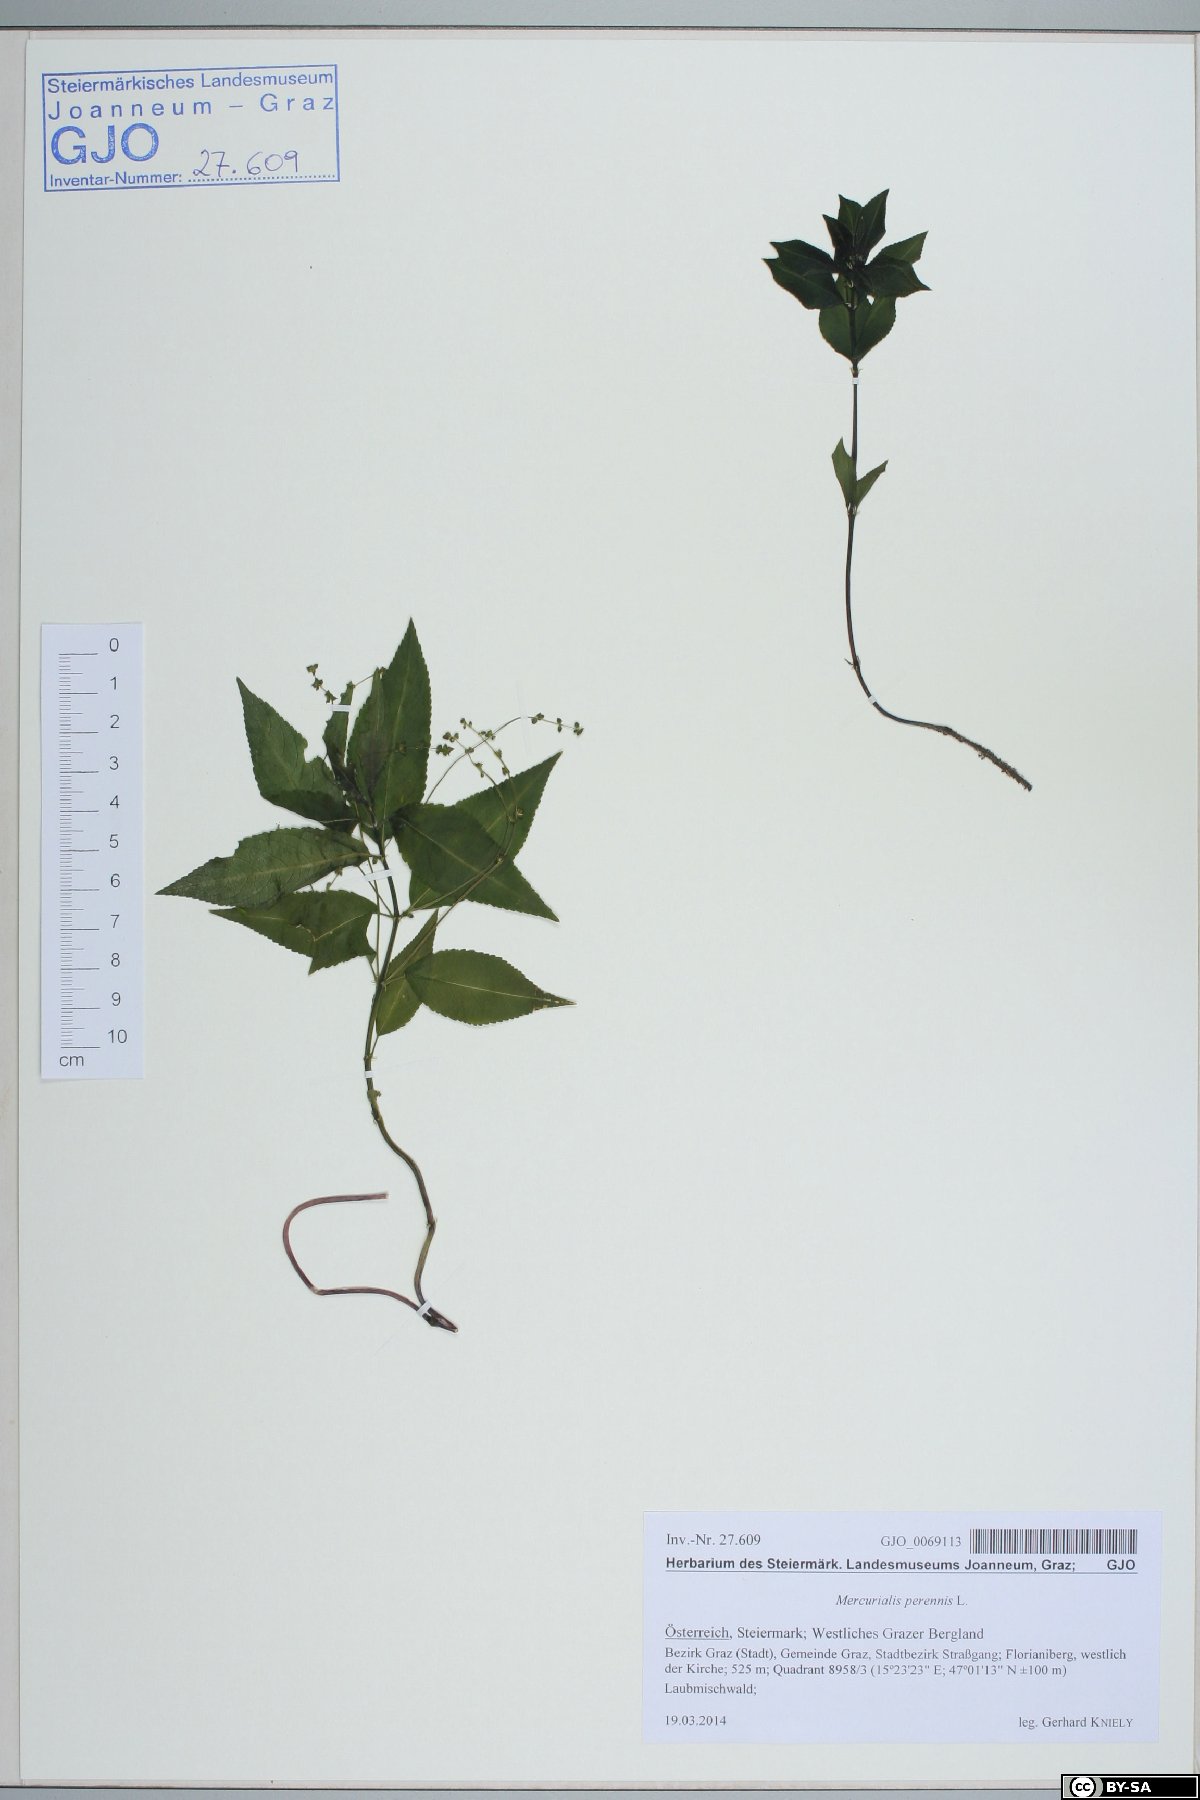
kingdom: Plantae
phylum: Tracheophyta
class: Magnoliopsida
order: Malpighiales
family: Euphorbiaceae
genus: Mercurialis
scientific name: Mercurialis perennis
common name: Dog mercury
